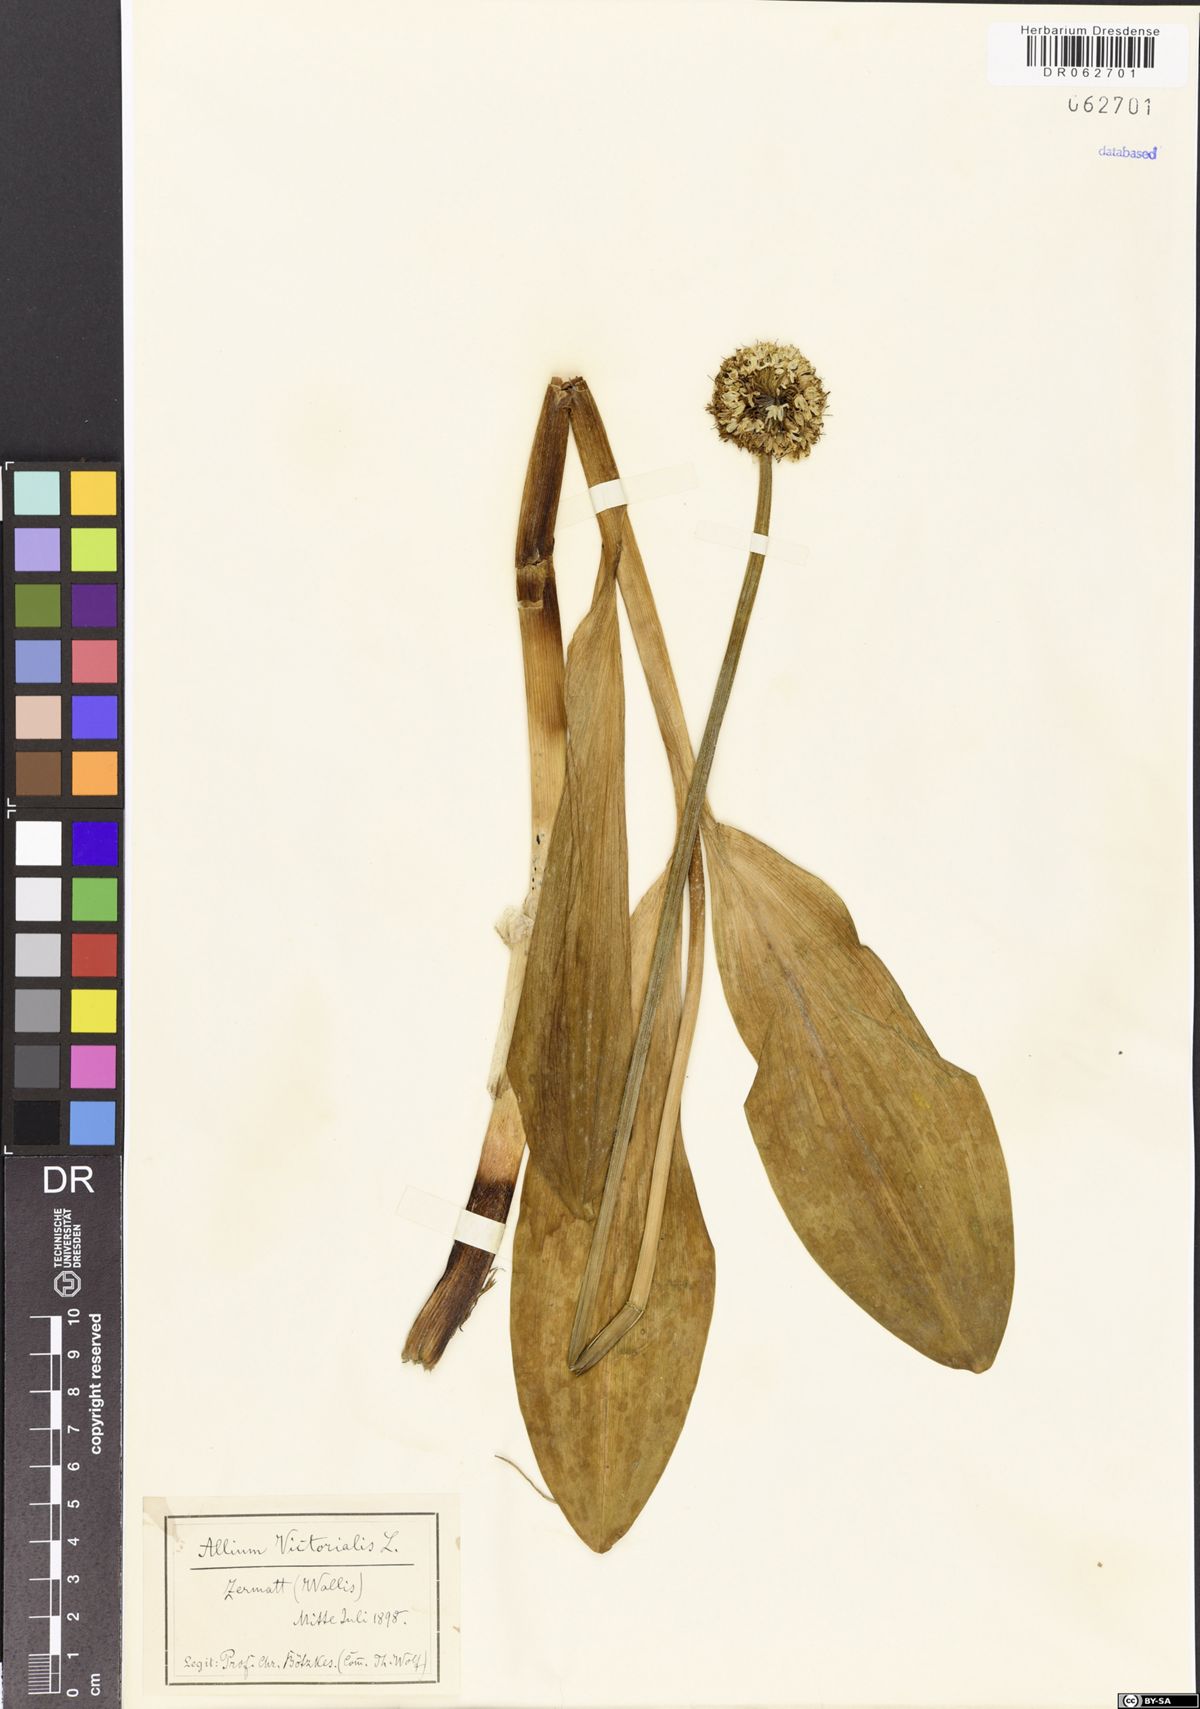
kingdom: Plantae
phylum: Tracheophyta
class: Liliopsida
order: Asparagales
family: Amaryllidaceae
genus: Allium
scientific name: Allium victorialis
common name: Alpine leek
